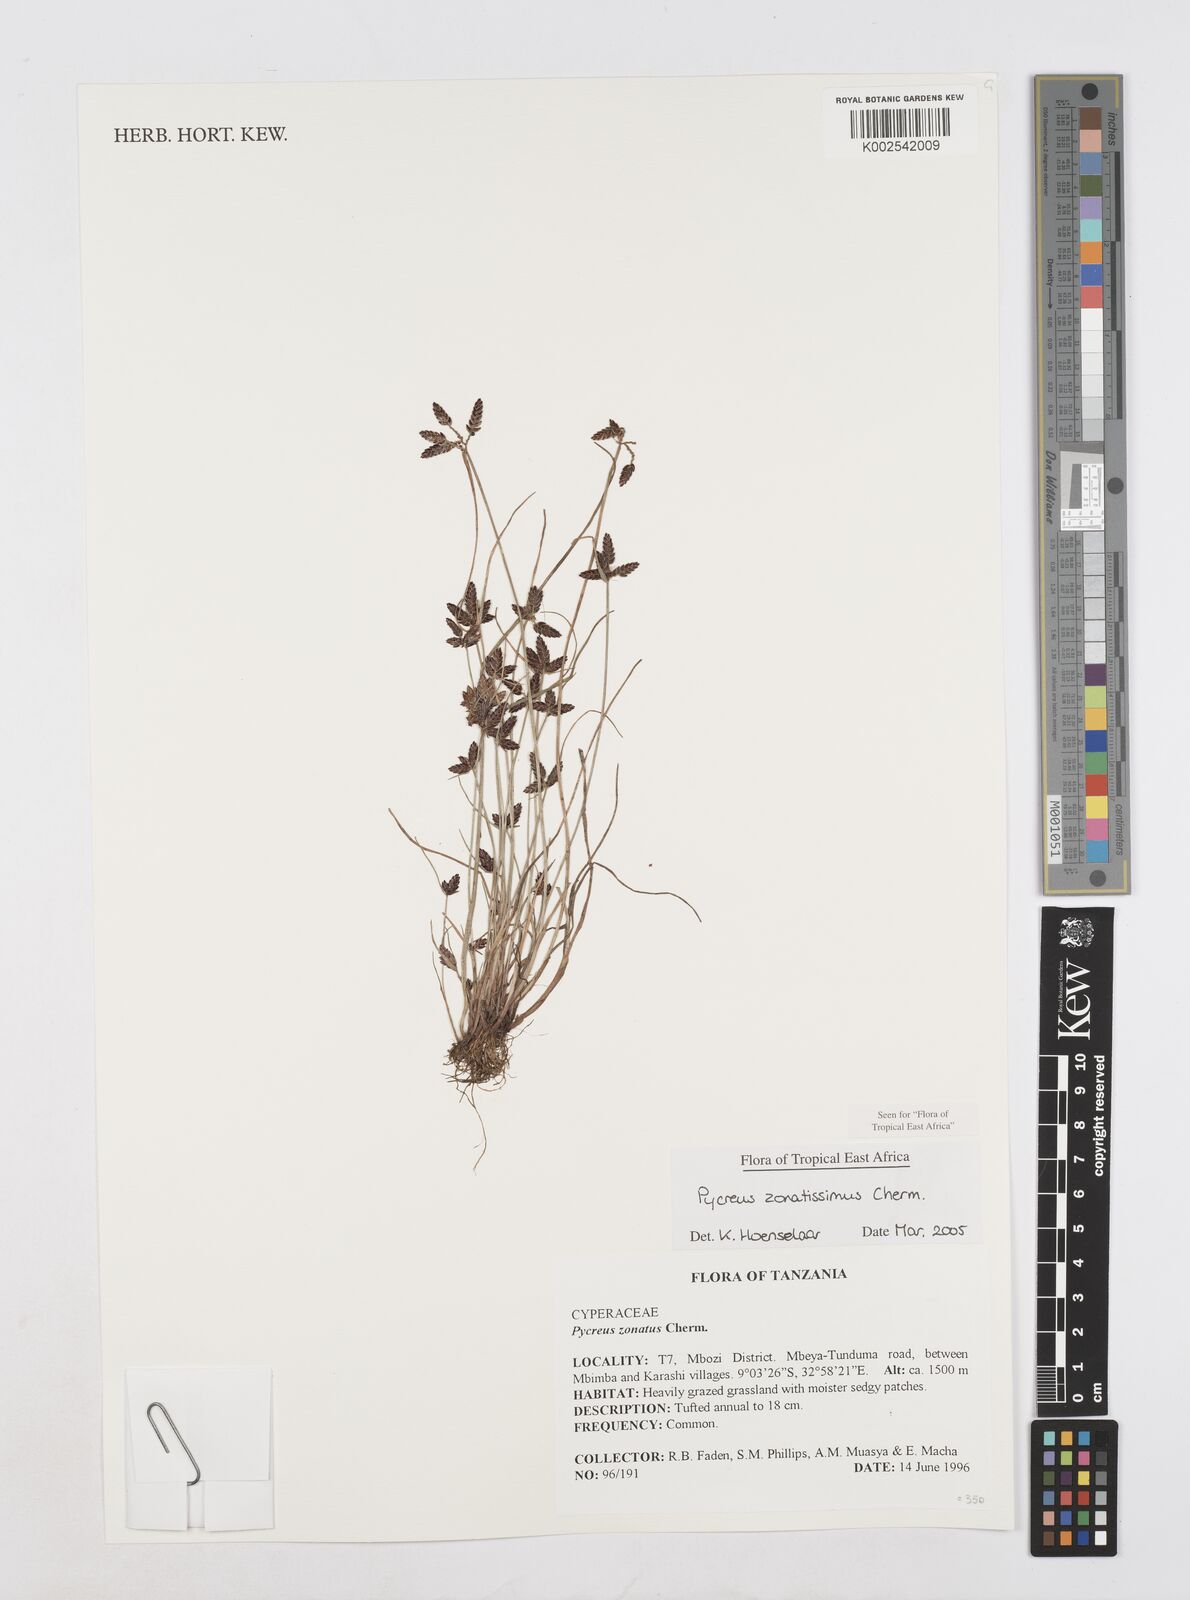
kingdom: Plantae
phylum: Tracheophyta
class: Liliopsida
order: Poales
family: Cyperaceae
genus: Cyperus
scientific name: Cyperus zonatissimus
